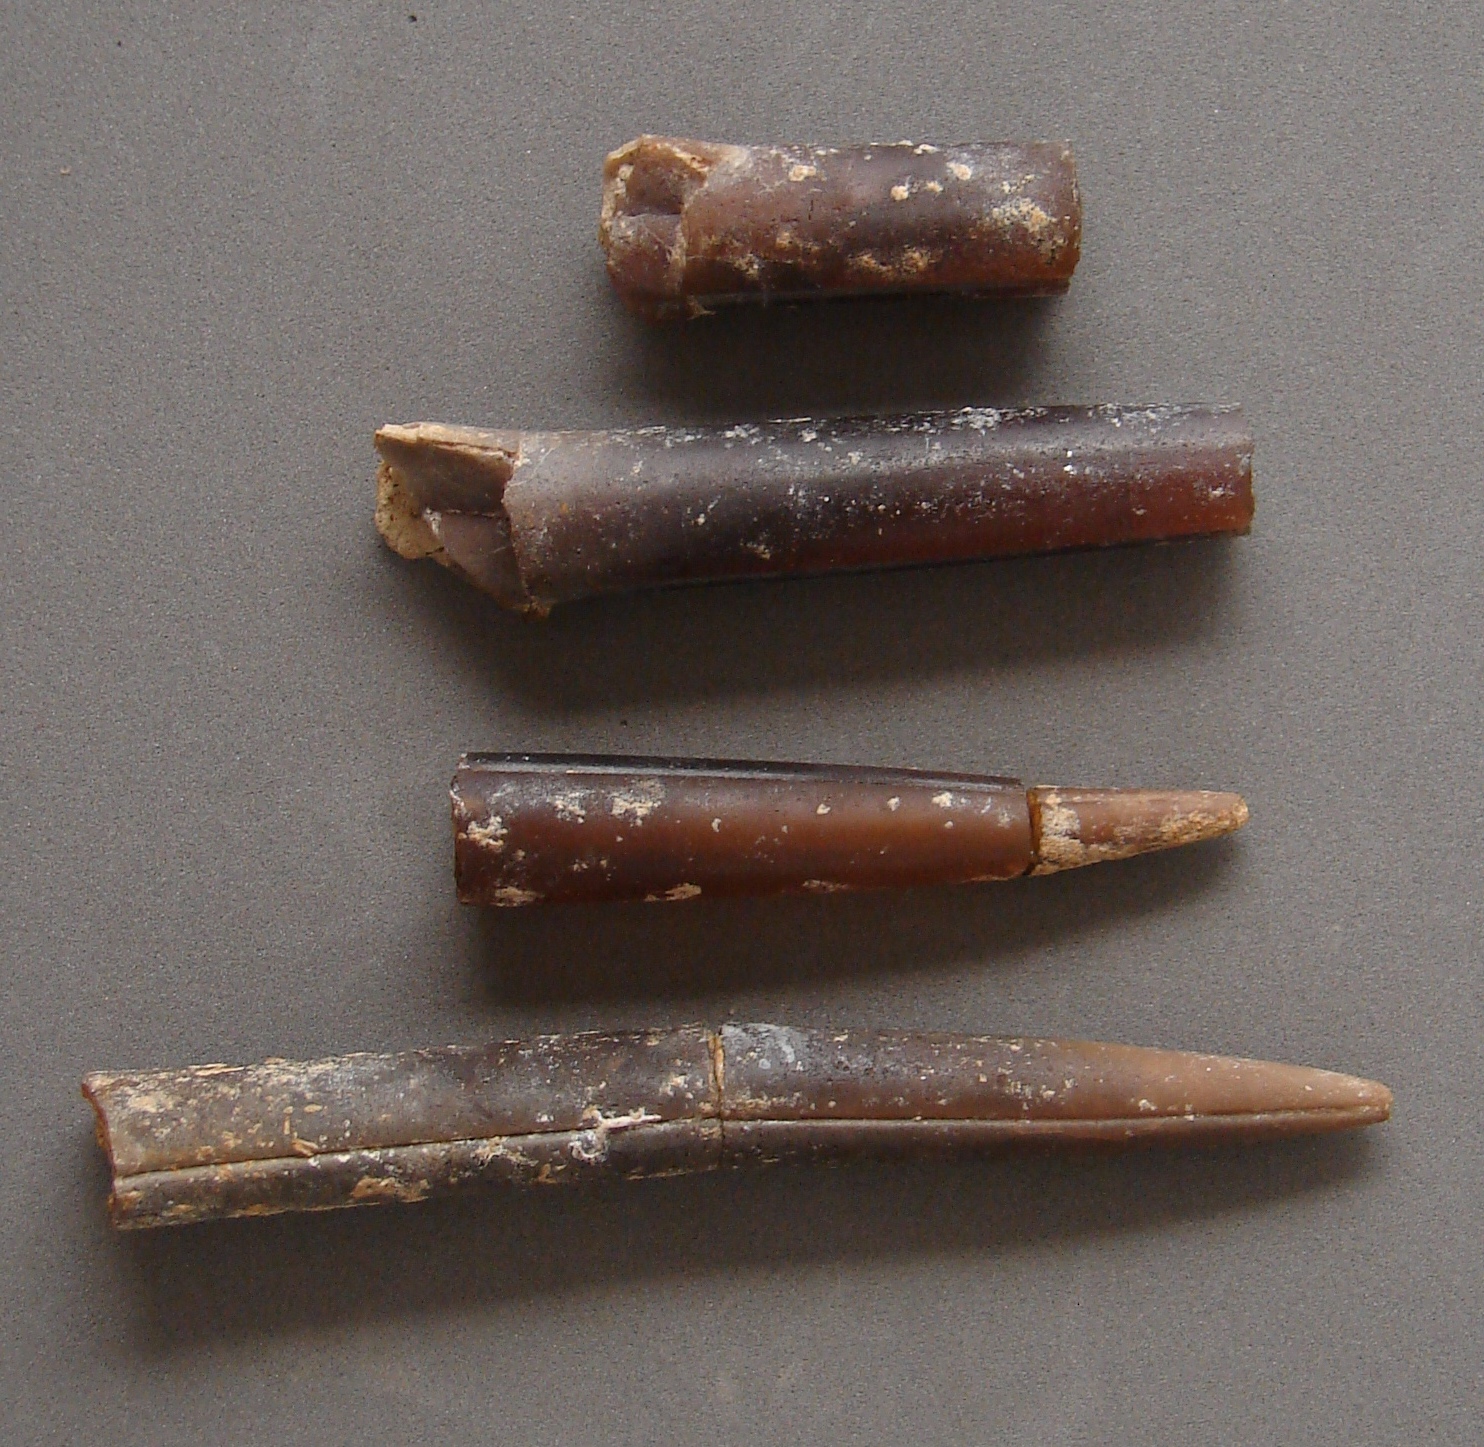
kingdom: Animalia
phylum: Mollusca
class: Cephalopoda
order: Belemnitida
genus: Holcobelus
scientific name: Holcobelus munieri
